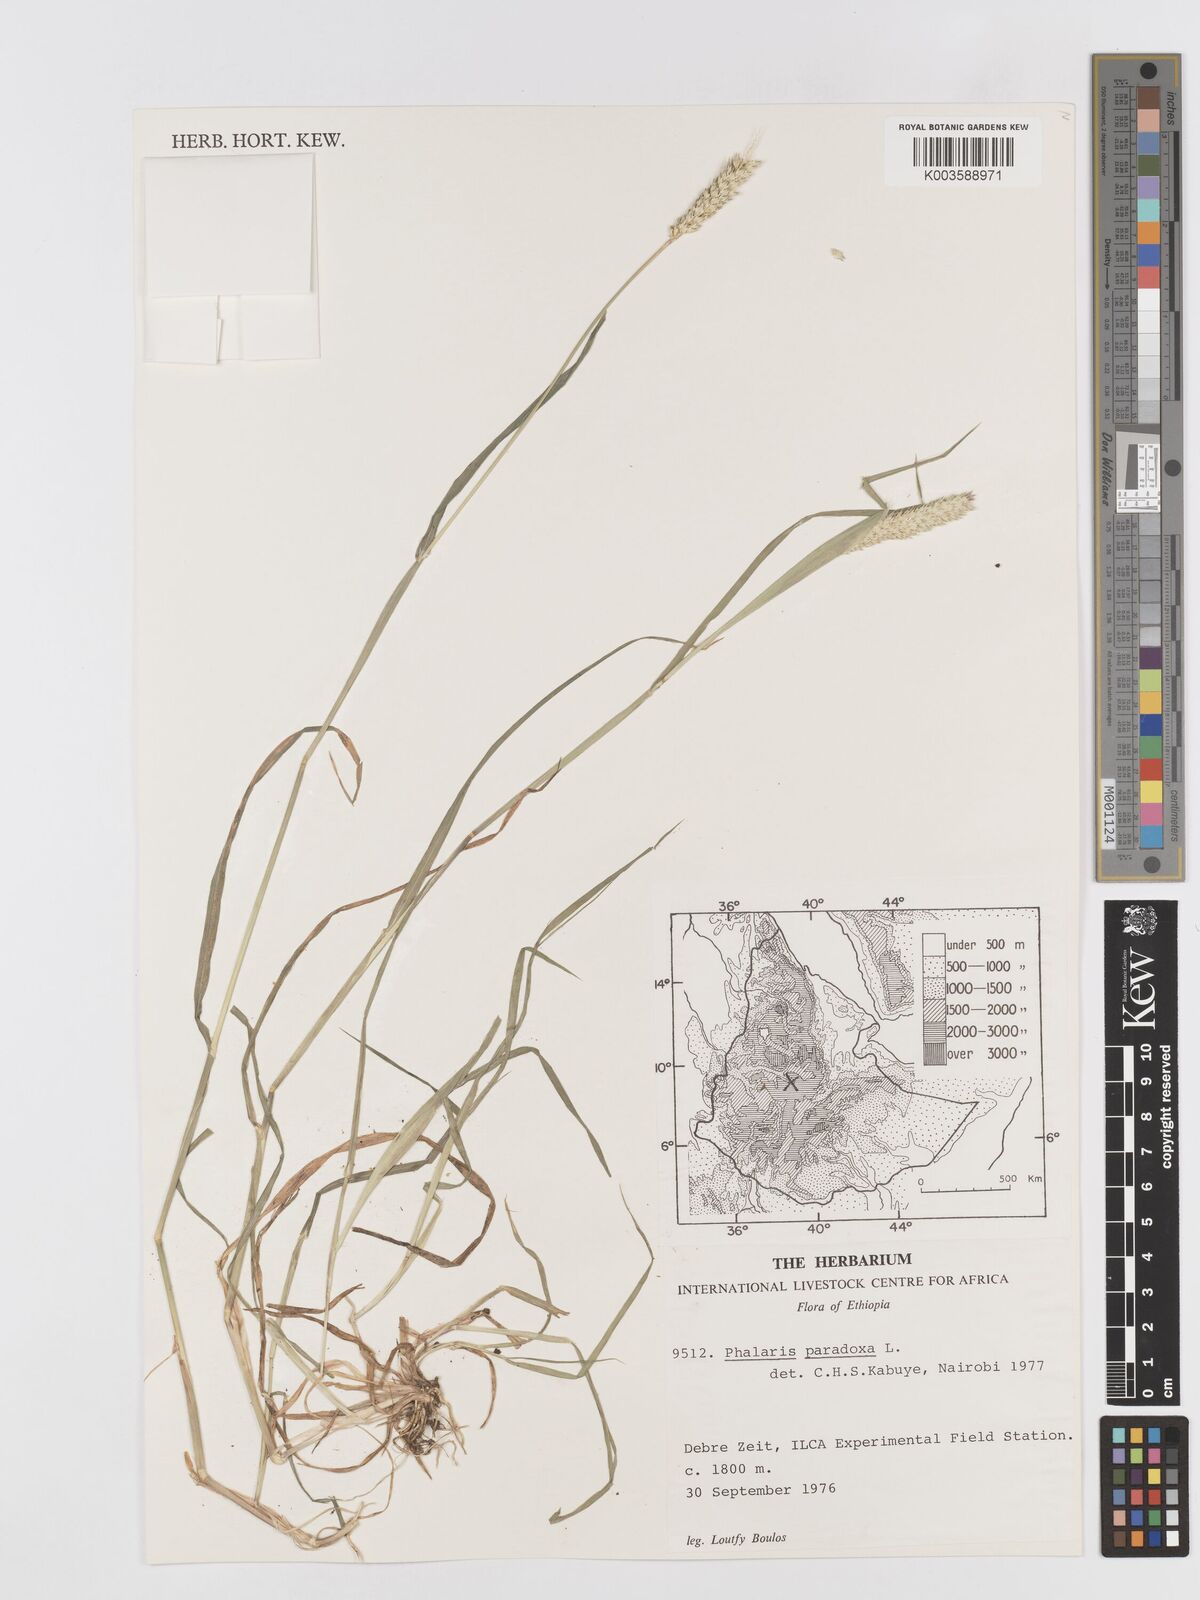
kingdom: Plantae
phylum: Tracheophyta
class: Liliopsida
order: Poales
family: Poaceae
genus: Phalaris
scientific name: Phalaris paradoxa
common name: Awned canary-grass
